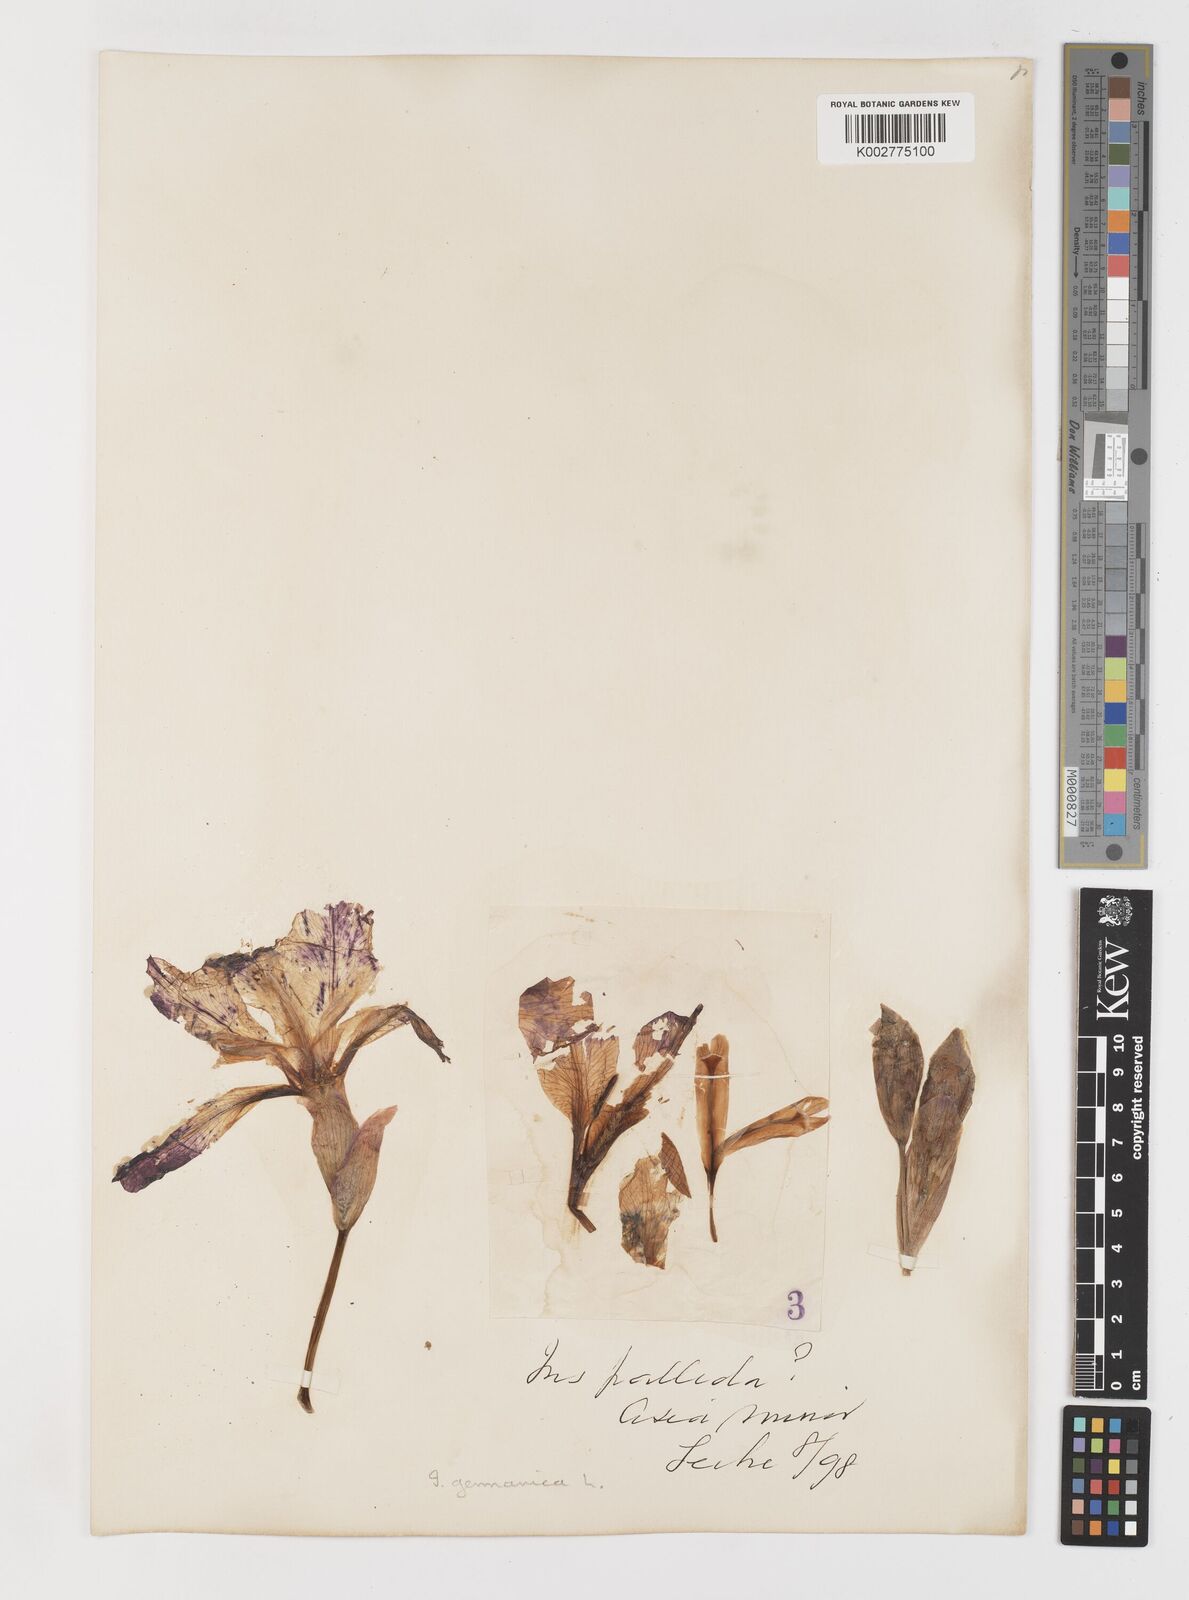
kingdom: Plantae
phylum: Tracheophyta
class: Liliopsida
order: Asparagales
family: Iridaceae
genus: Iris
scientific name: Iris germanica
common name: German iris
